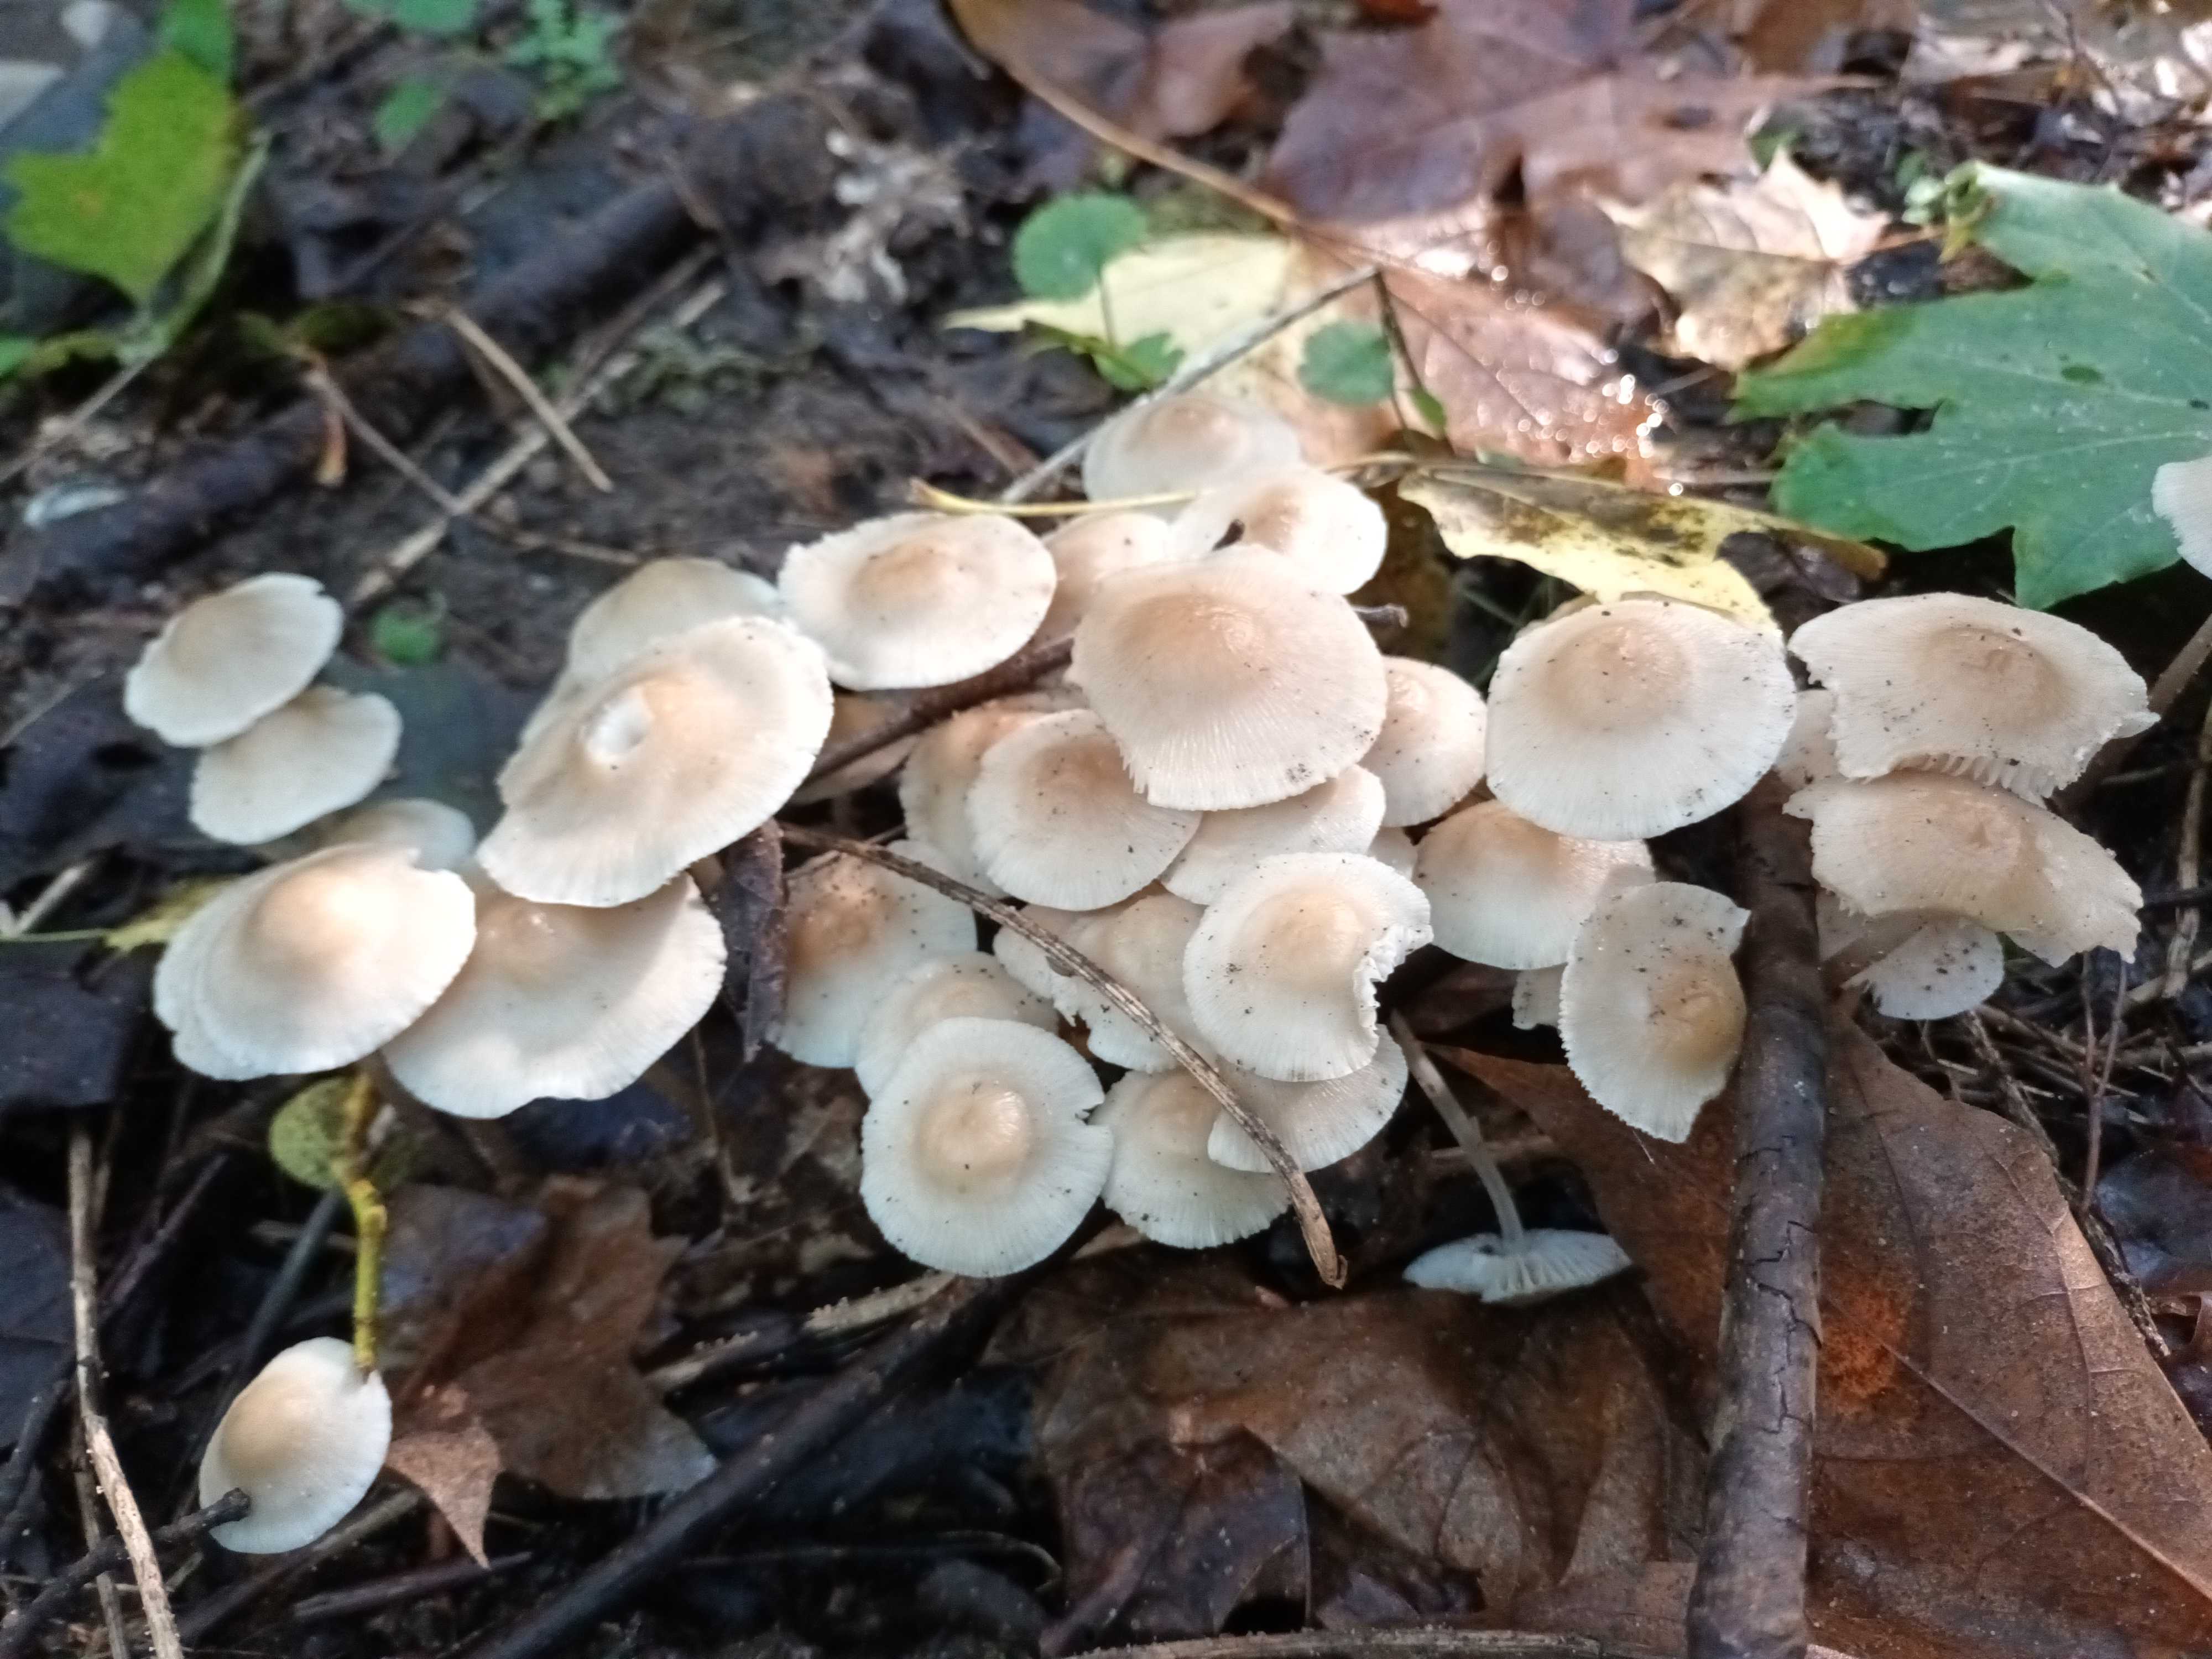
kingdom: Fungi
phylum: Basidiomycota
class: Agaricomycetes
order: Agaricales
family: Mycenaceae
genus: Mycena
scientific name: Mycena galericulata
